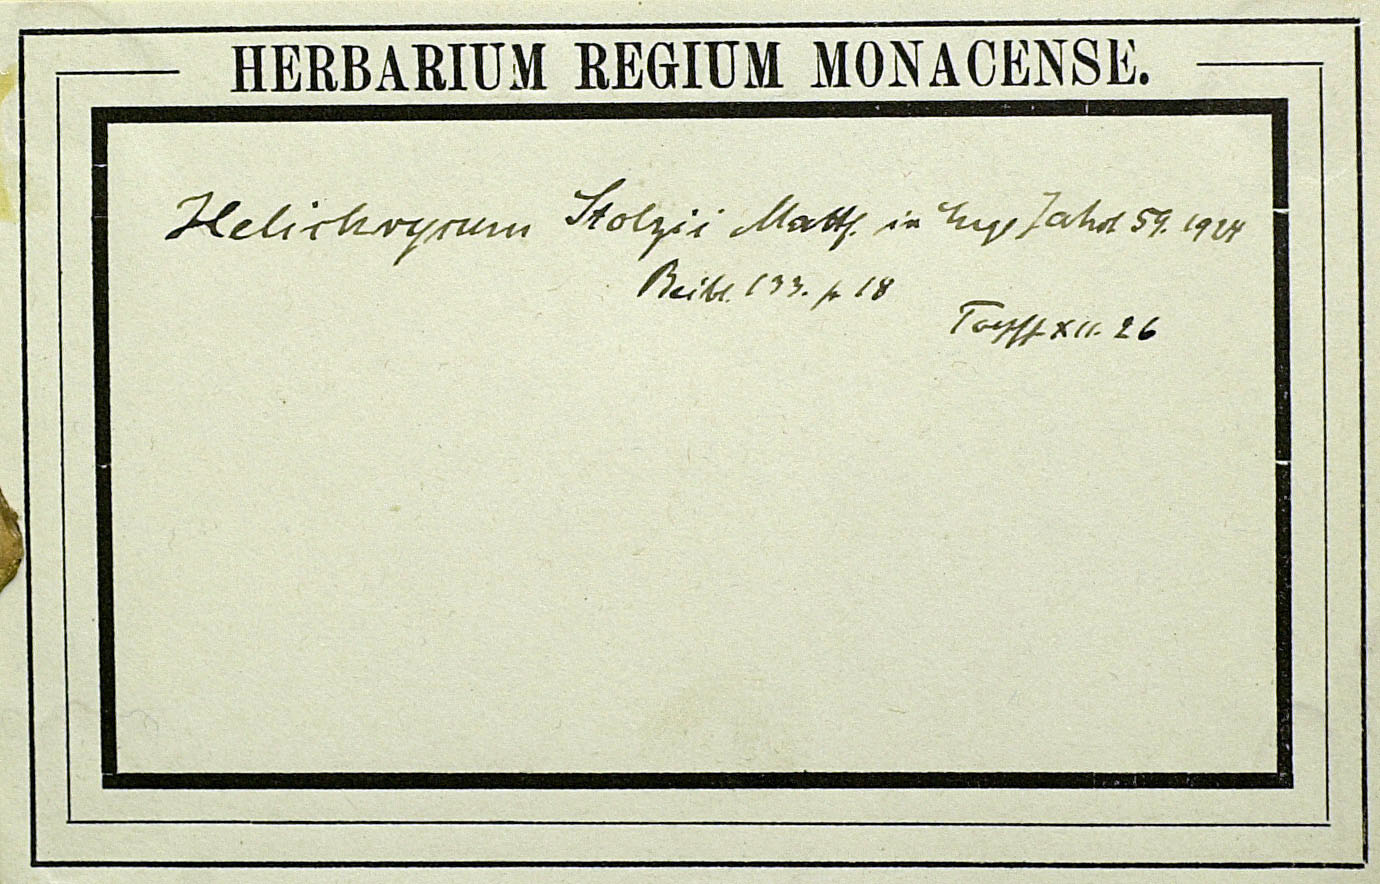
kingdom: Plantae
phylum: Tracheophyta
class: Magnoliopsida
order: Asterales
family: Asteraceae
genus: Helichrysum
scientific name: Helichrysum stolzii
